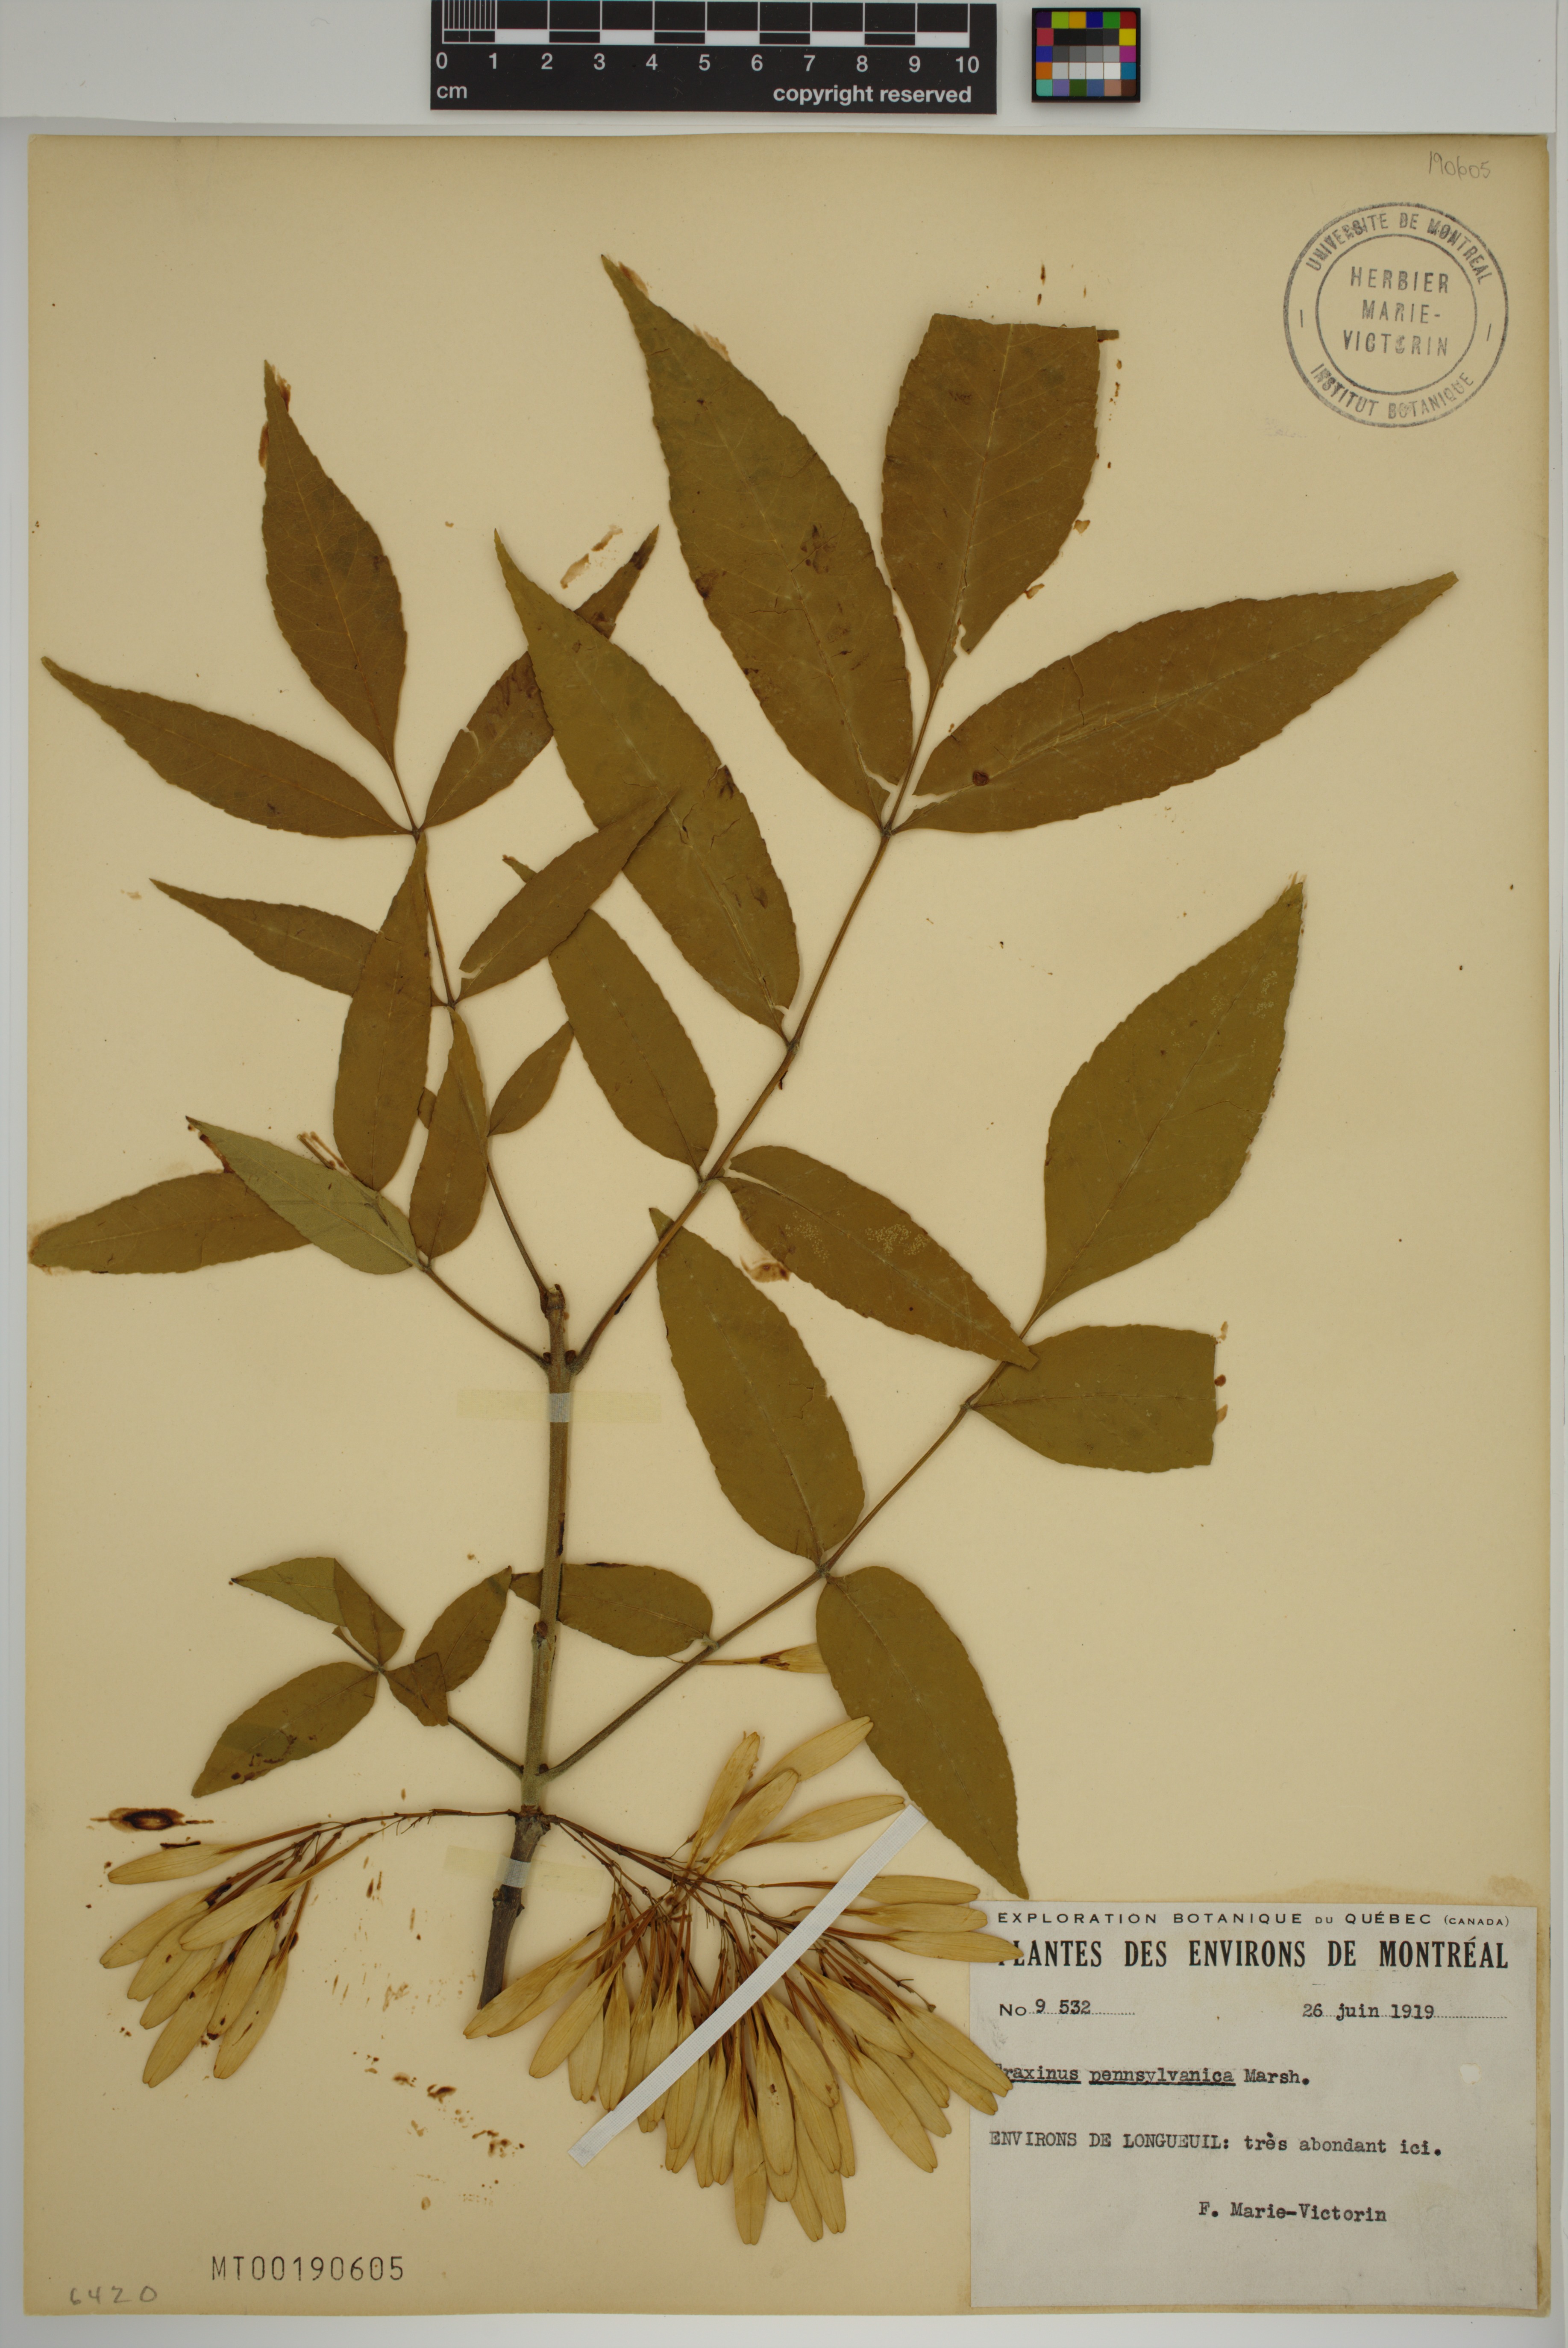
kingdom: Plantae
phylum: Tracheophyta
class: Magnoliopsida
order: Lamiales
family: Oleaceae
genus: Fraxinus
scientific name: Fraxinus pennsylvanica
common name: Green ash
